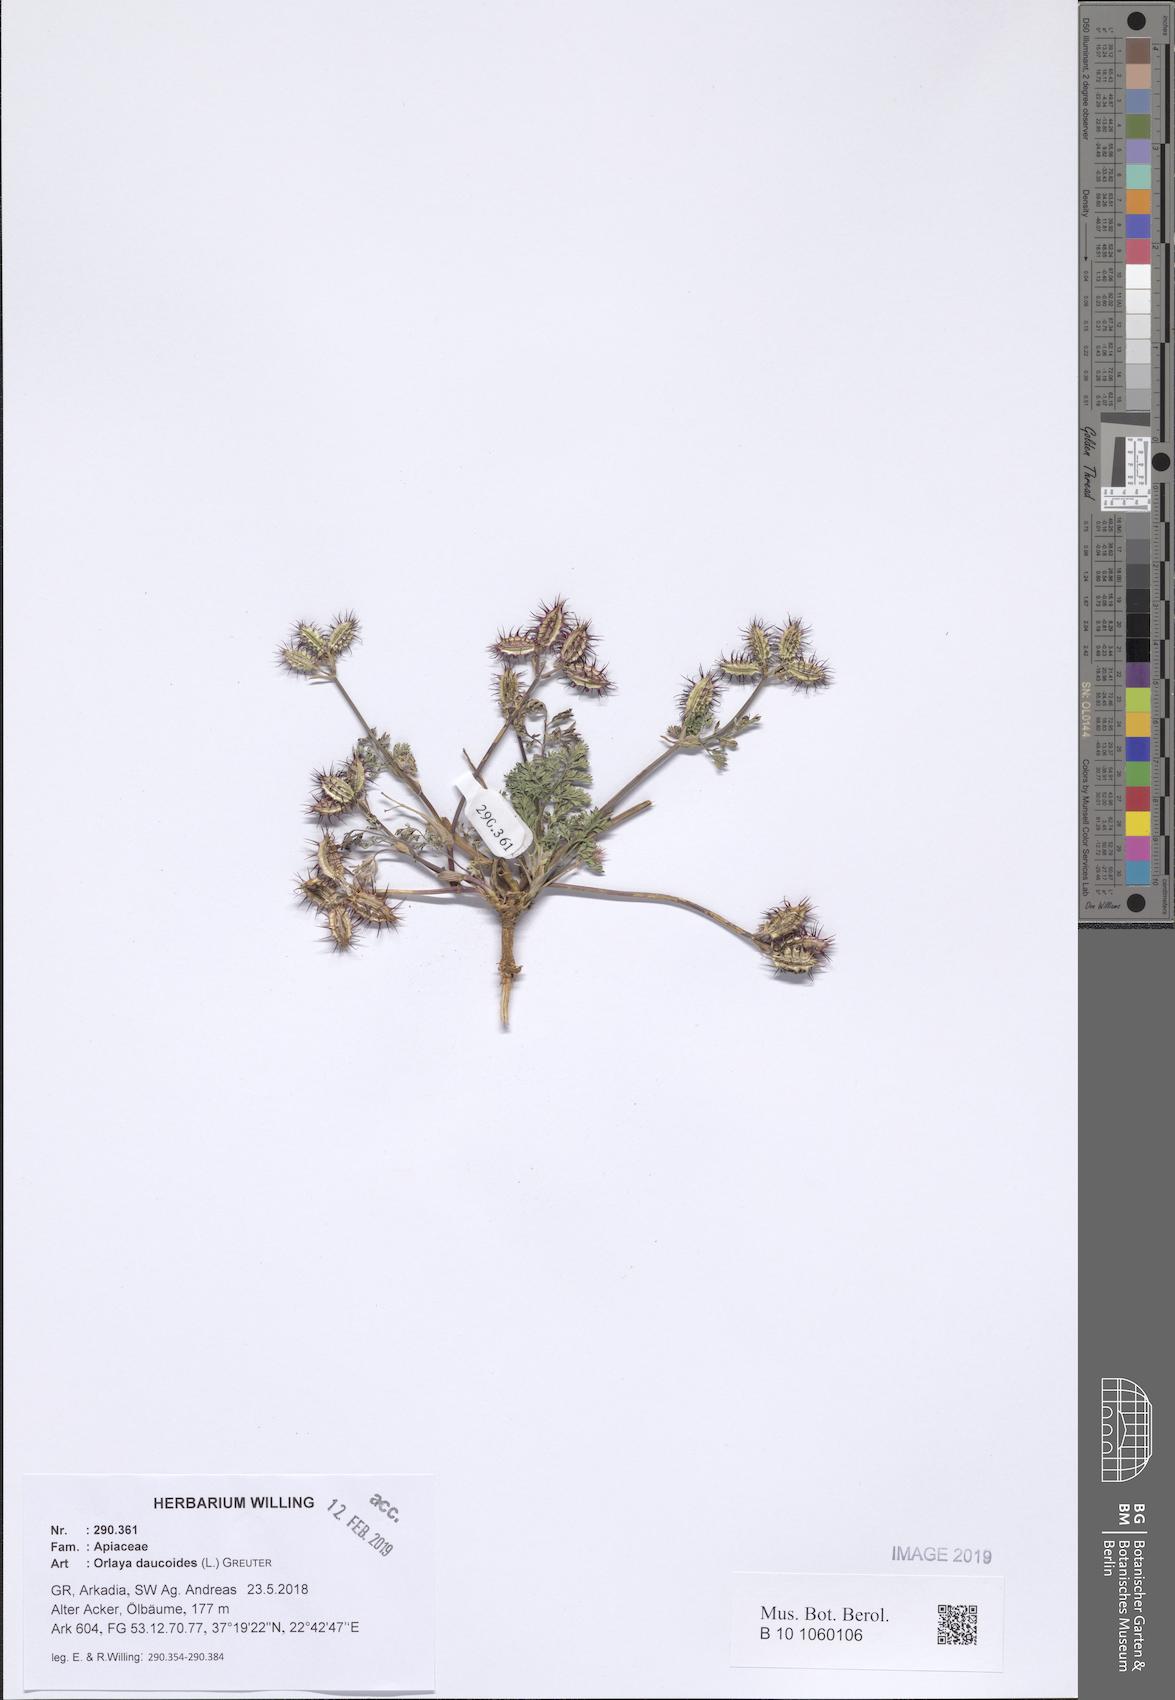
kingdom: Plantae
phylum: Tracheophyta
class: Magnoliopsida
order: Apiales
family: Apiaceae
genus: Orlaya
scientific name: Orlaya daucoides
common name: Flat-fruit orlaya
